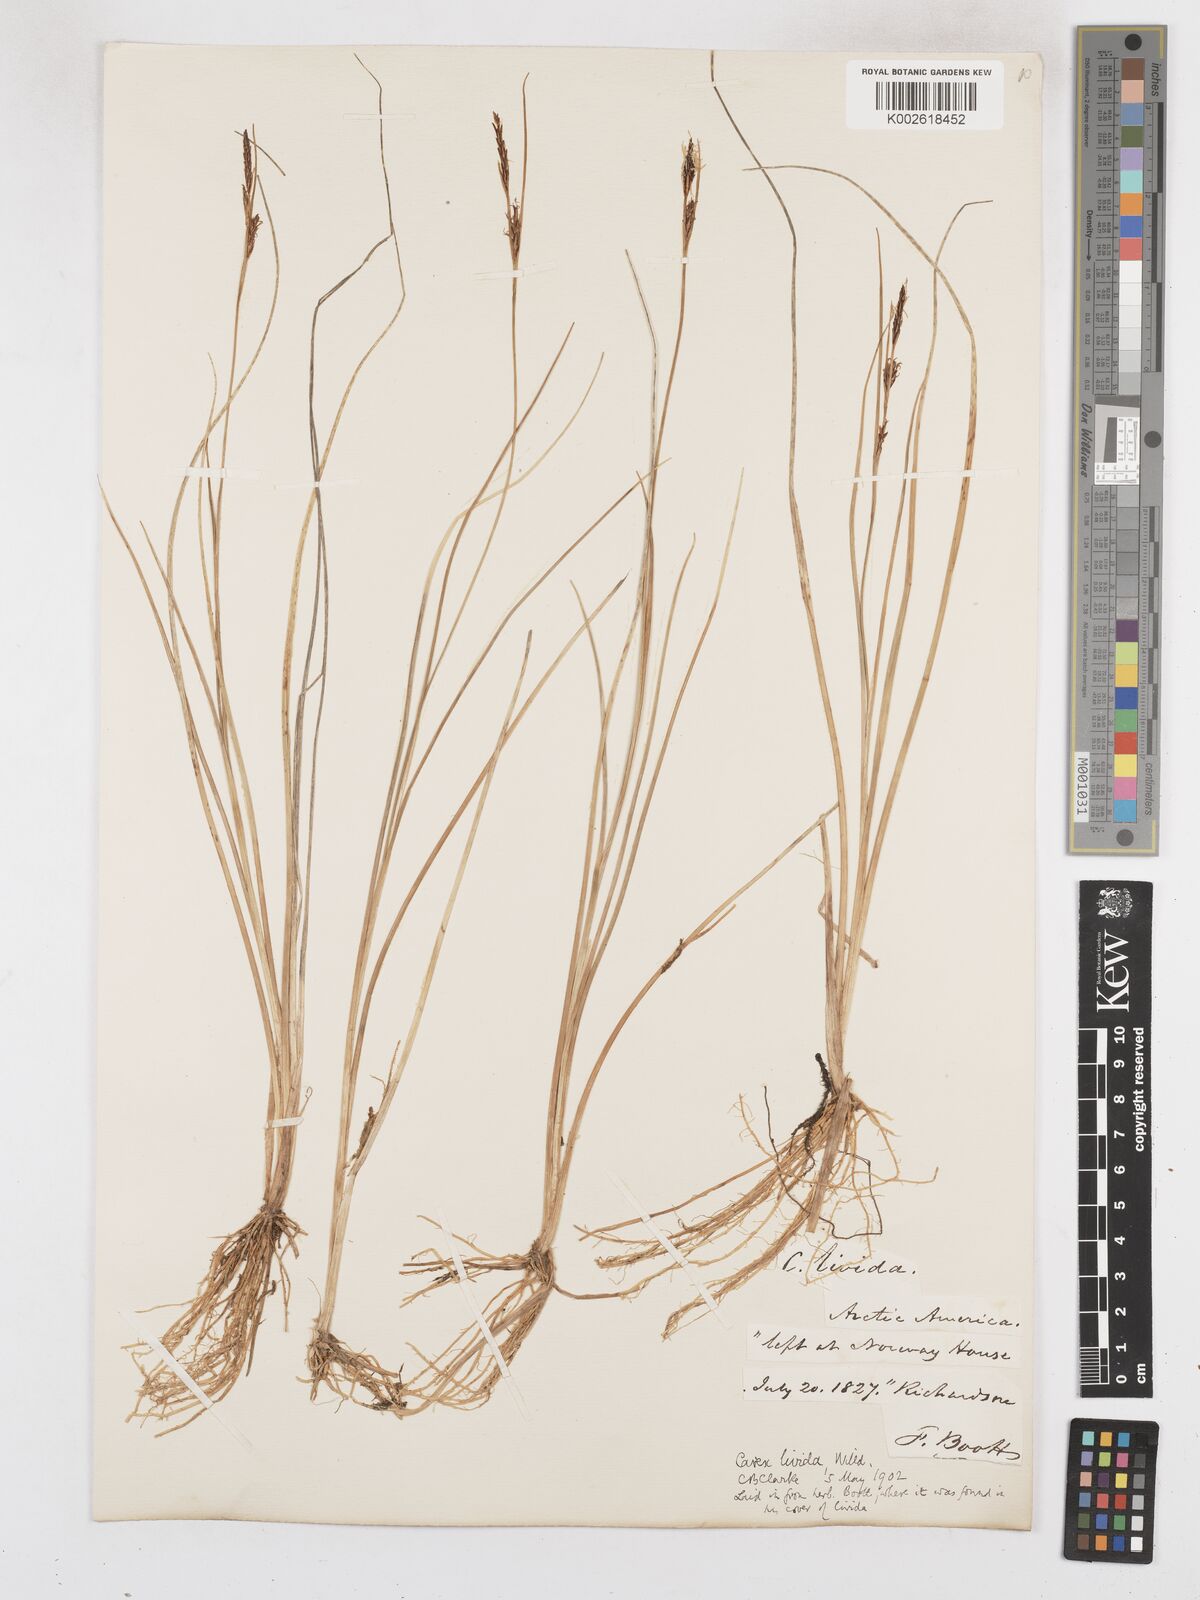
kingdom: Plantae
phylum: Tracheophyta
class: Liliopsida
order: Poales
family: Cyperaceae
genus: Carex
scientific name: Carex livida
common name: Livid sedge
